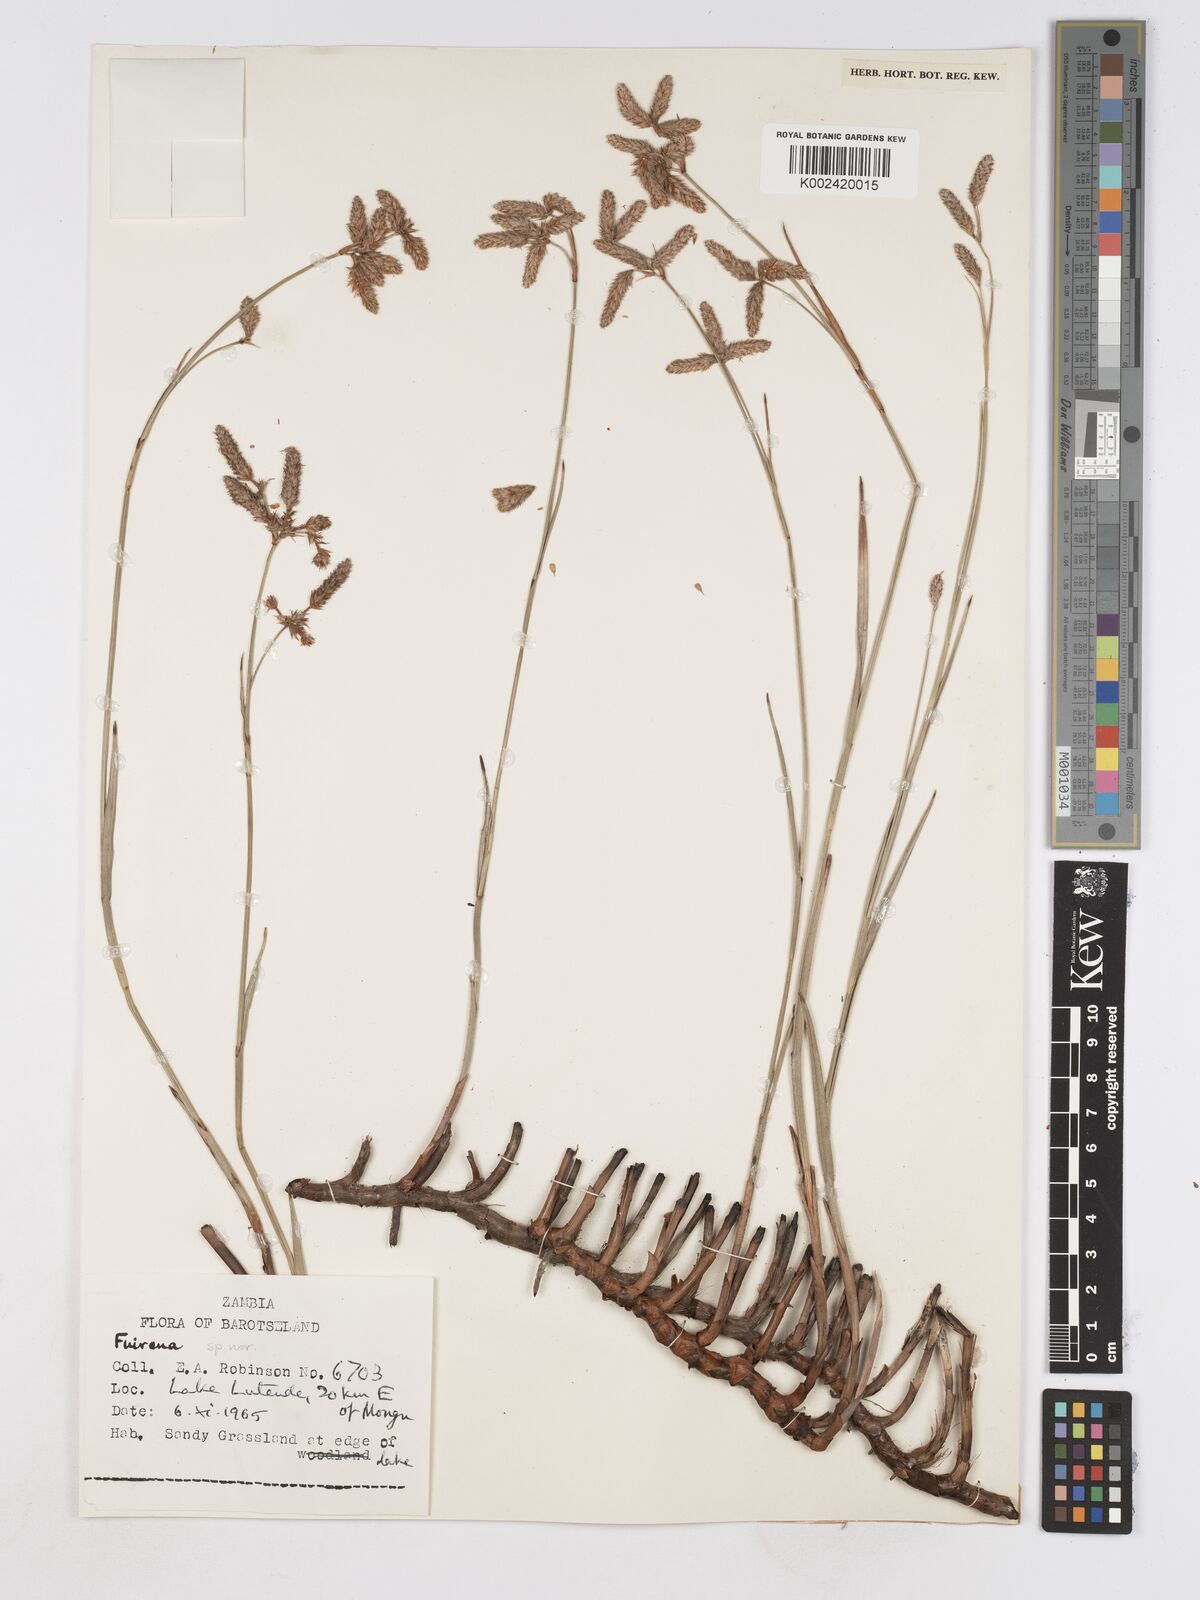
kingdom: Plantae
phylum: Tracheophyta
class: Liliopsida
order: Poales
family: Cyperaceae
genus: Fuirena
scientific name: Fuirena ecklonii
